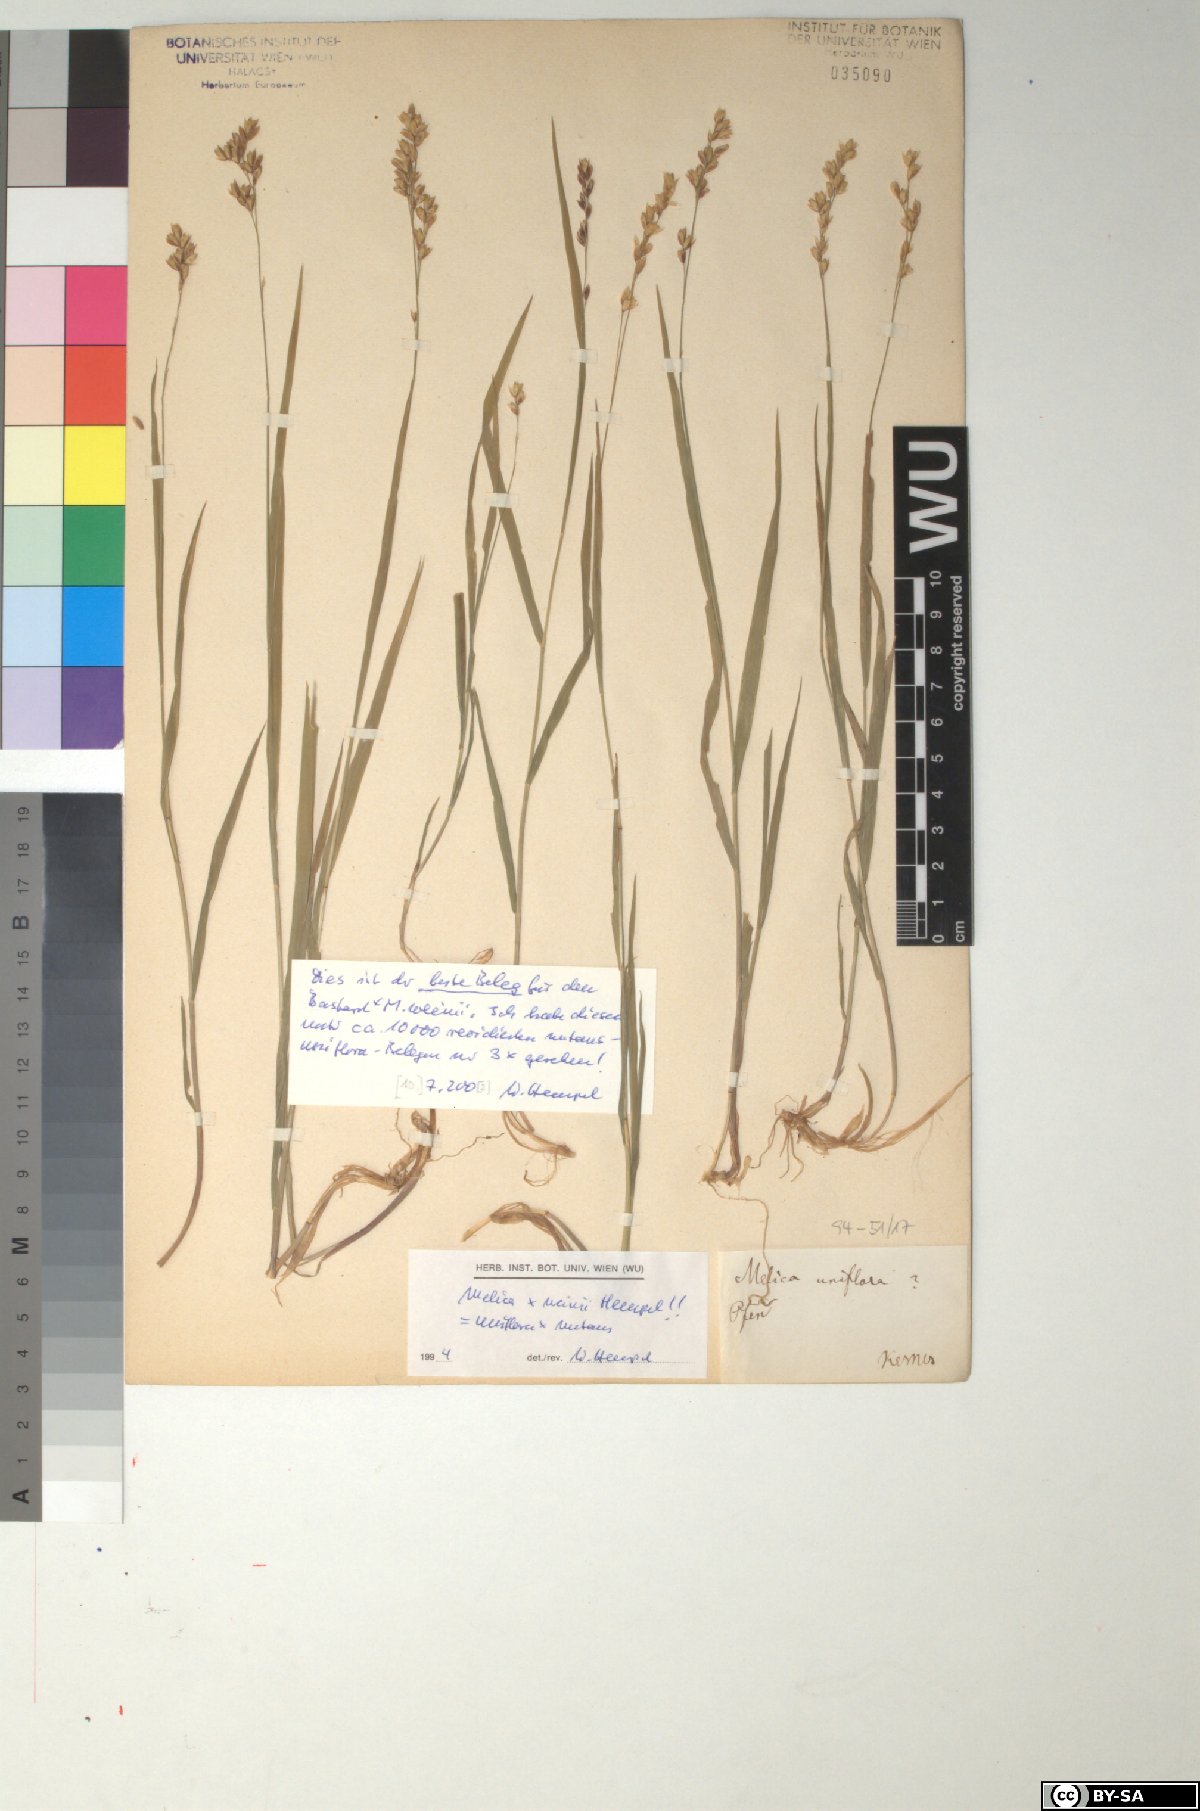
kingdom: Plantae
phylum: Tracheophyta
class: Liliopsida
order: Poales
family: Poaceae
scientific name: Poaceae
